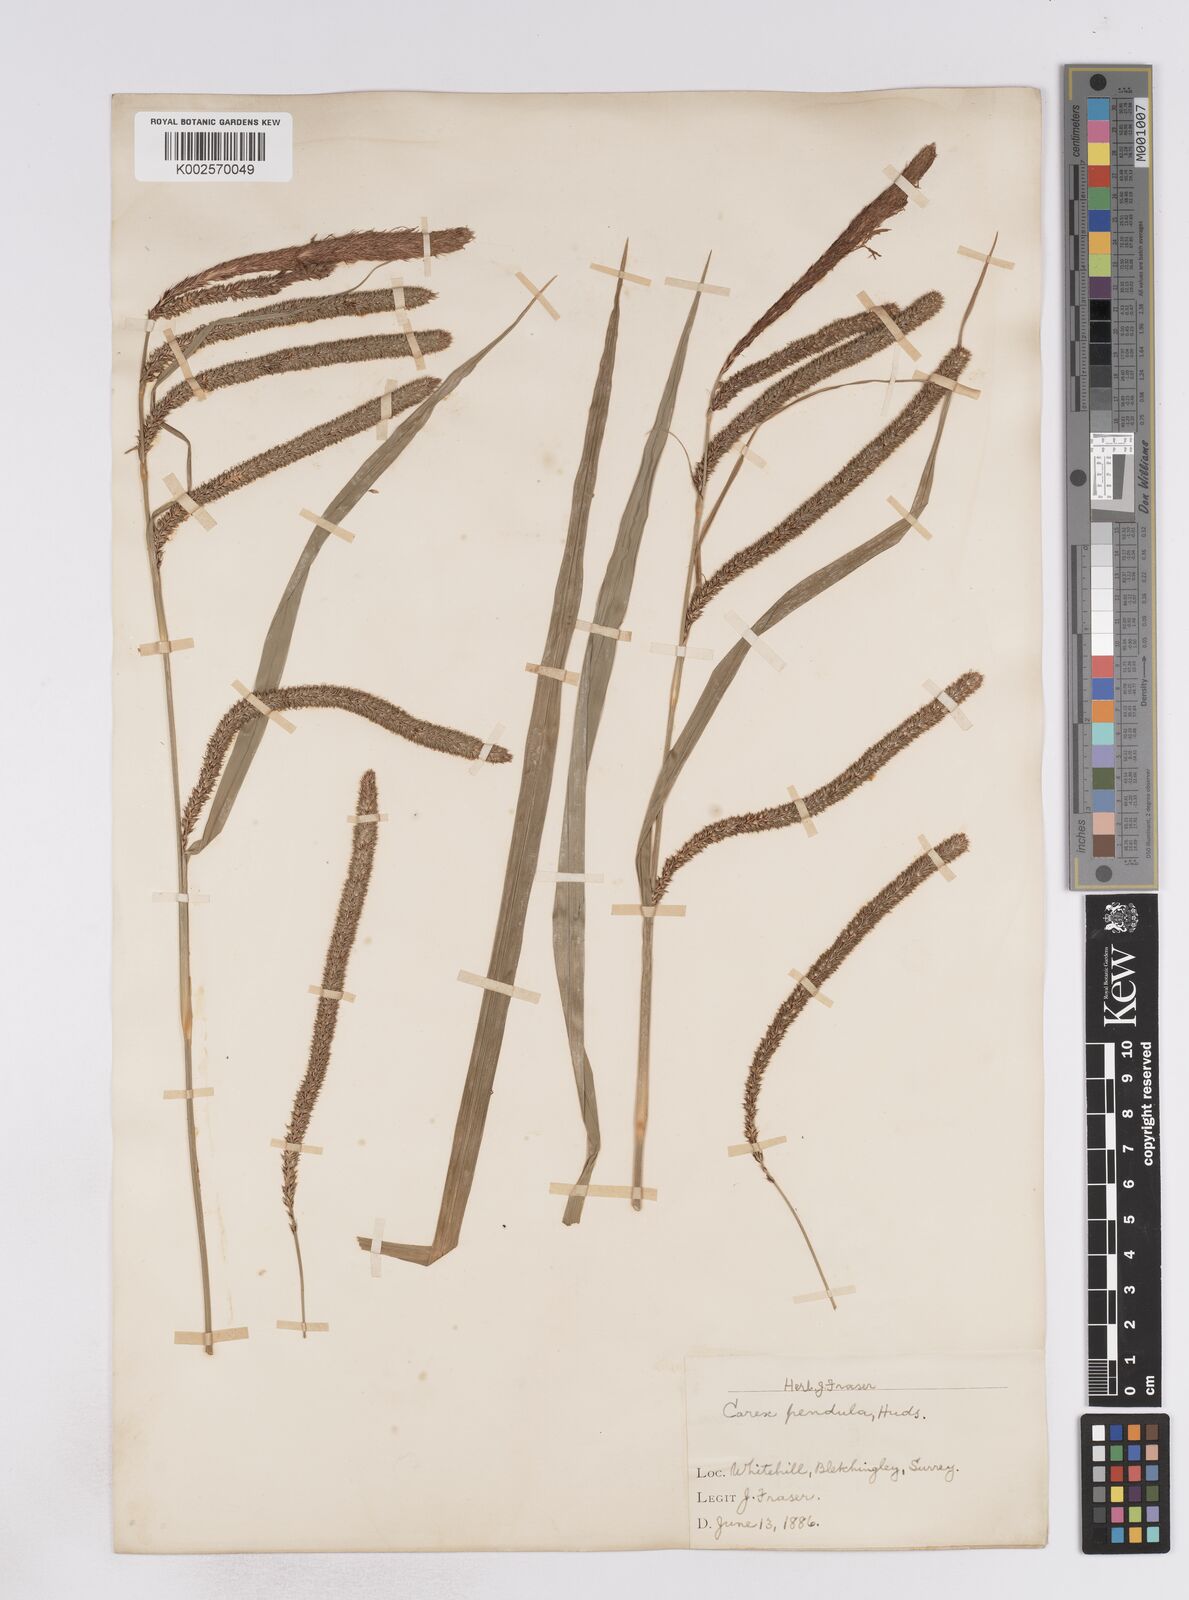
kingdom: Plantae
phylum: Tracheophyta
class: Liliopsida
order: Poales
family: Cyperaceae
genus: Carex
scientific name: Carex pendula
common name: Pendulous sedge
